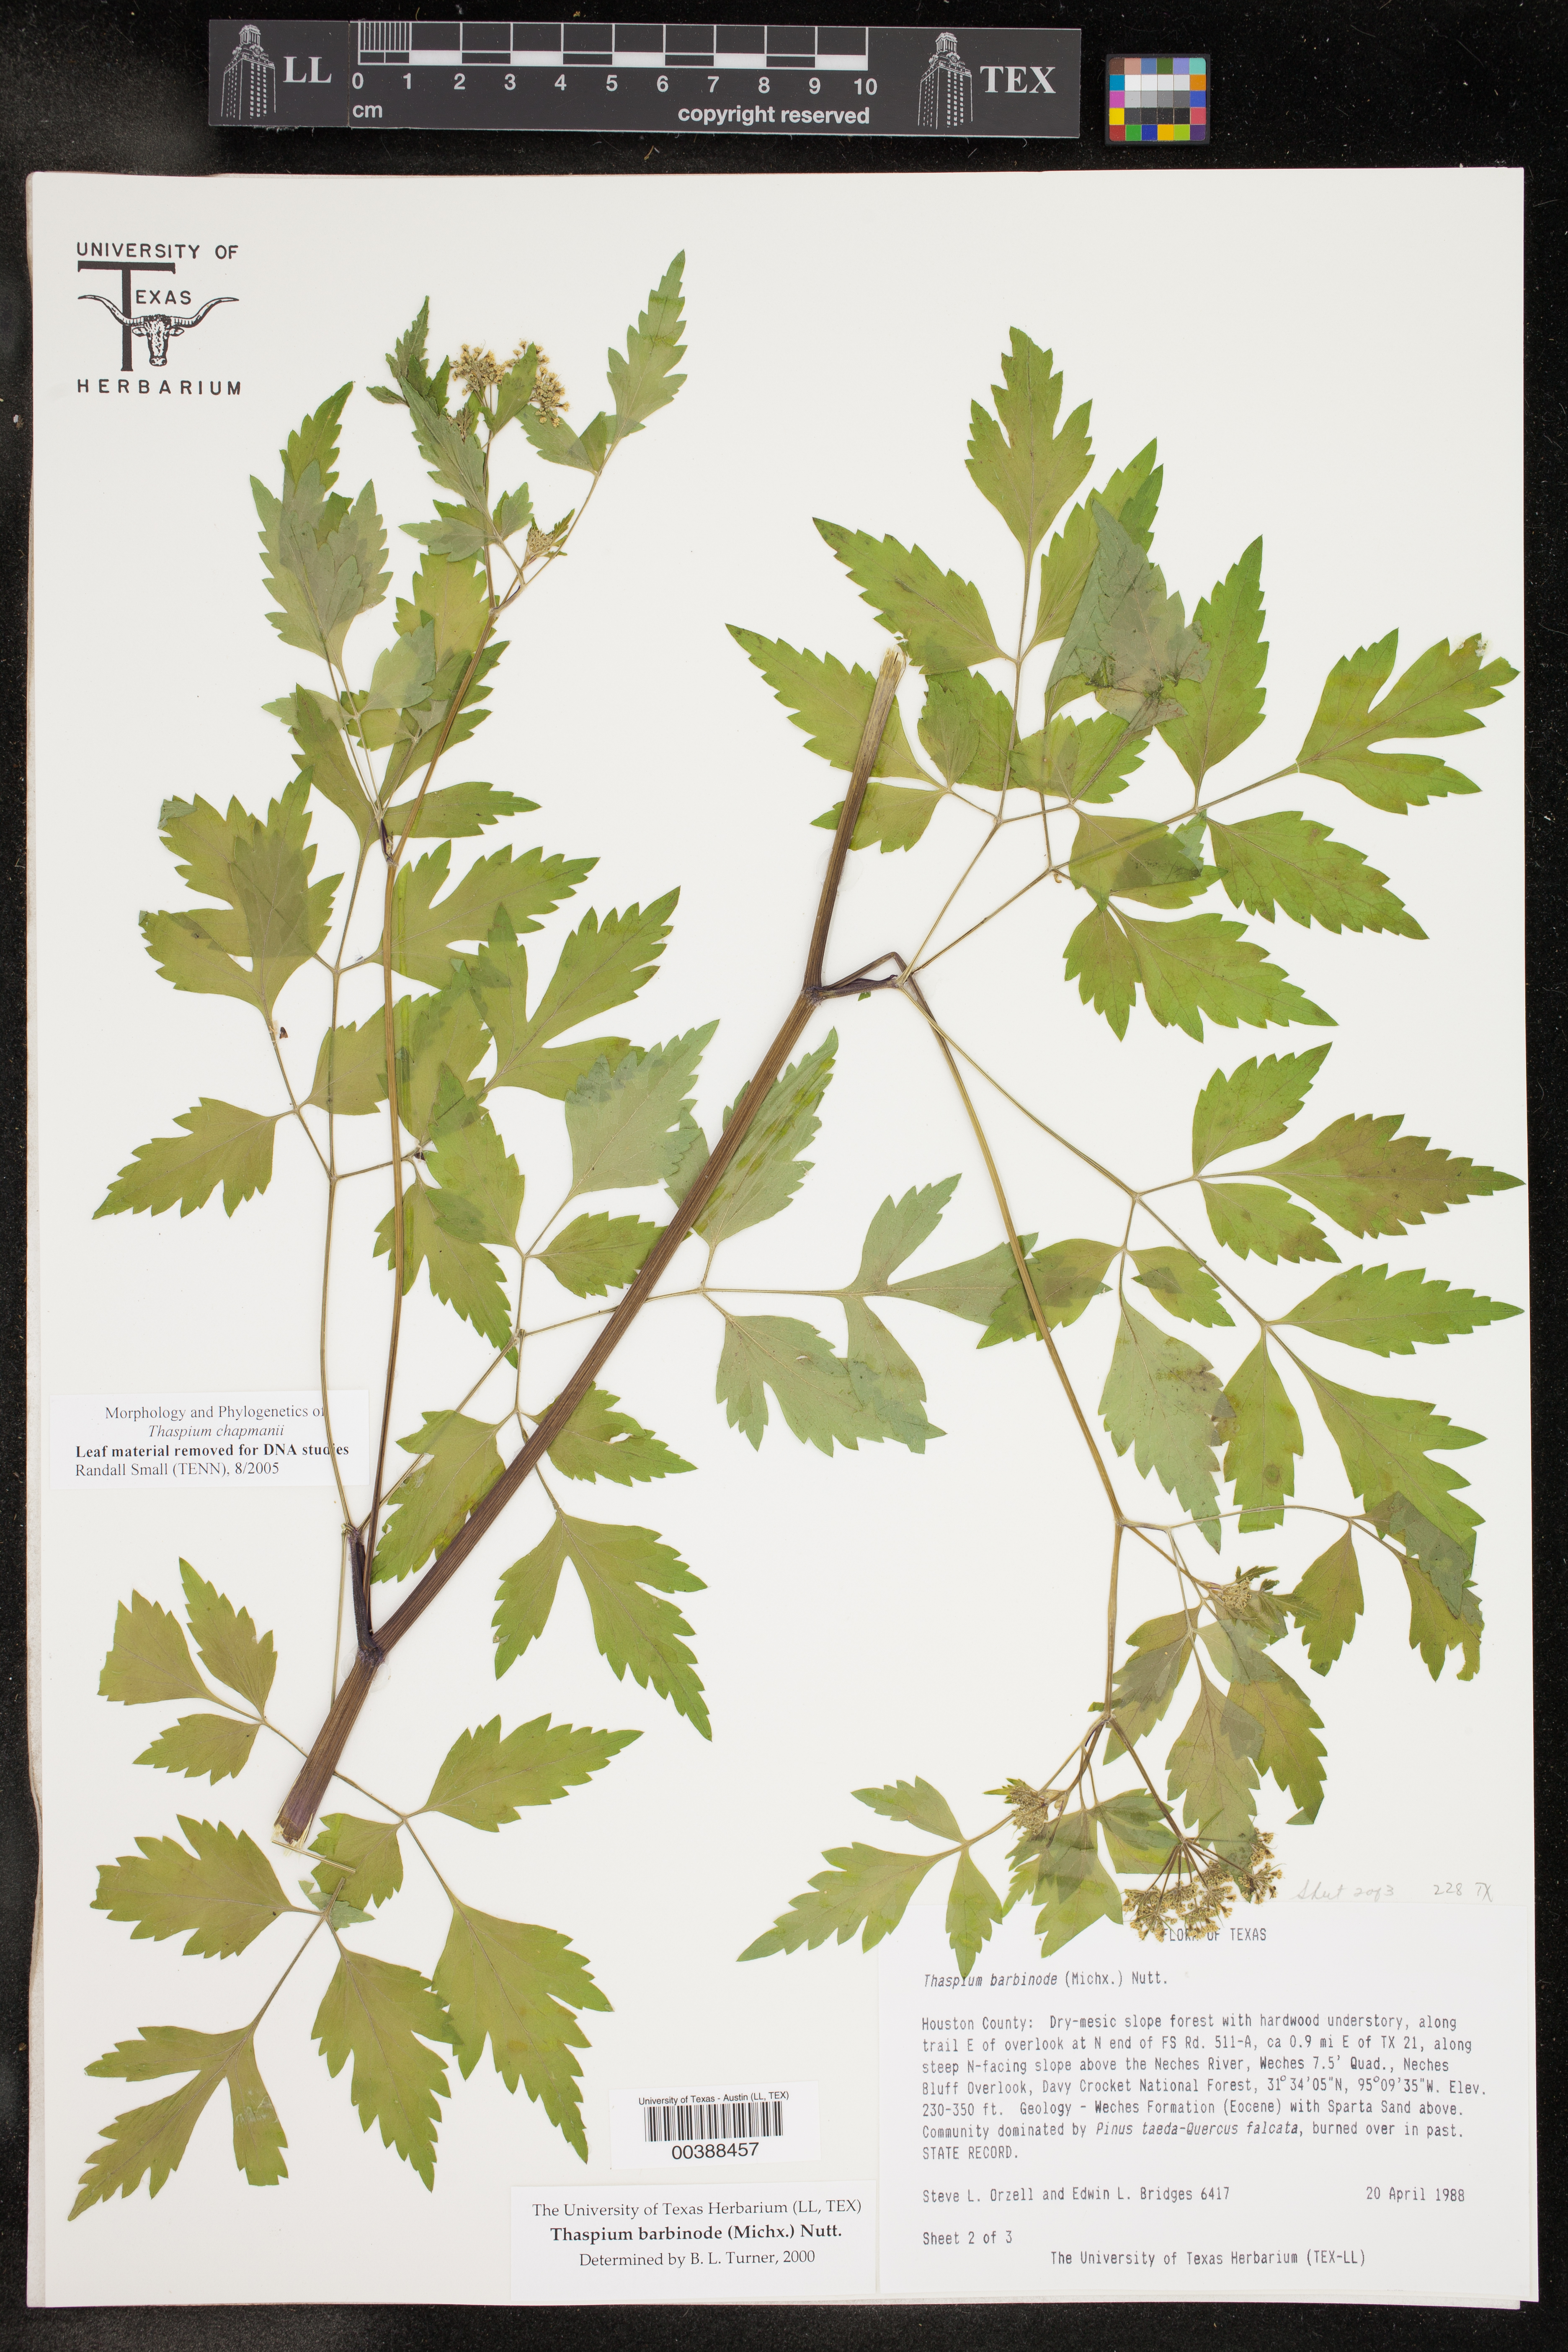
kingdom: Plantae
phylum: Tracheophyta
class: Magnoliopsida
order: Apiales
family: Apiaceae
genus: Thaspium
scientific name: Thaspium barbinode
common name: Bearded meadow-parsnip
